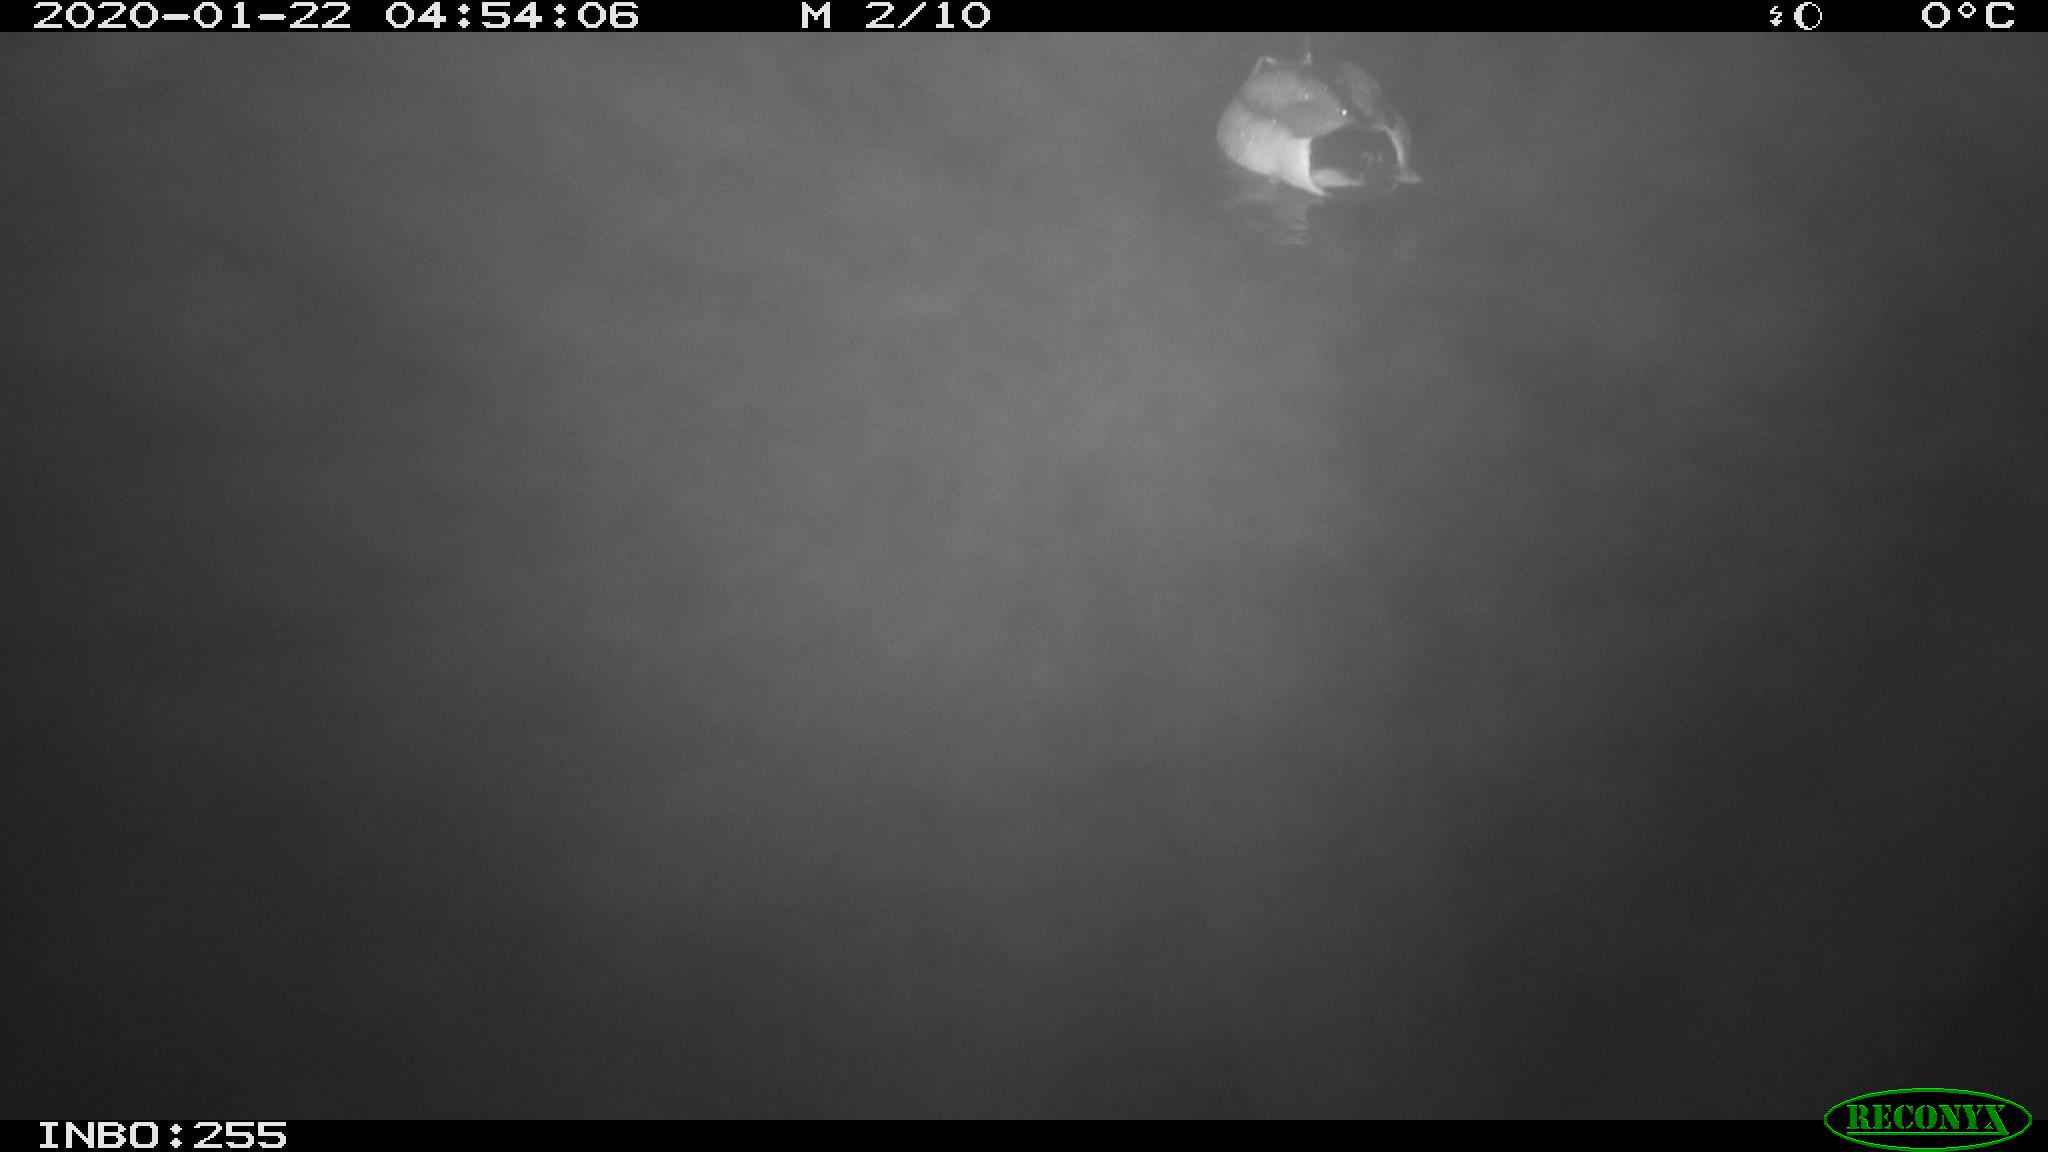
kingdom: Animalia
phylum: Chordata
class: Aves
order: Anseriformes
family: Anatidae
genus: Anas
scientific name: Anas platyrhynchos
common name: Mallard
